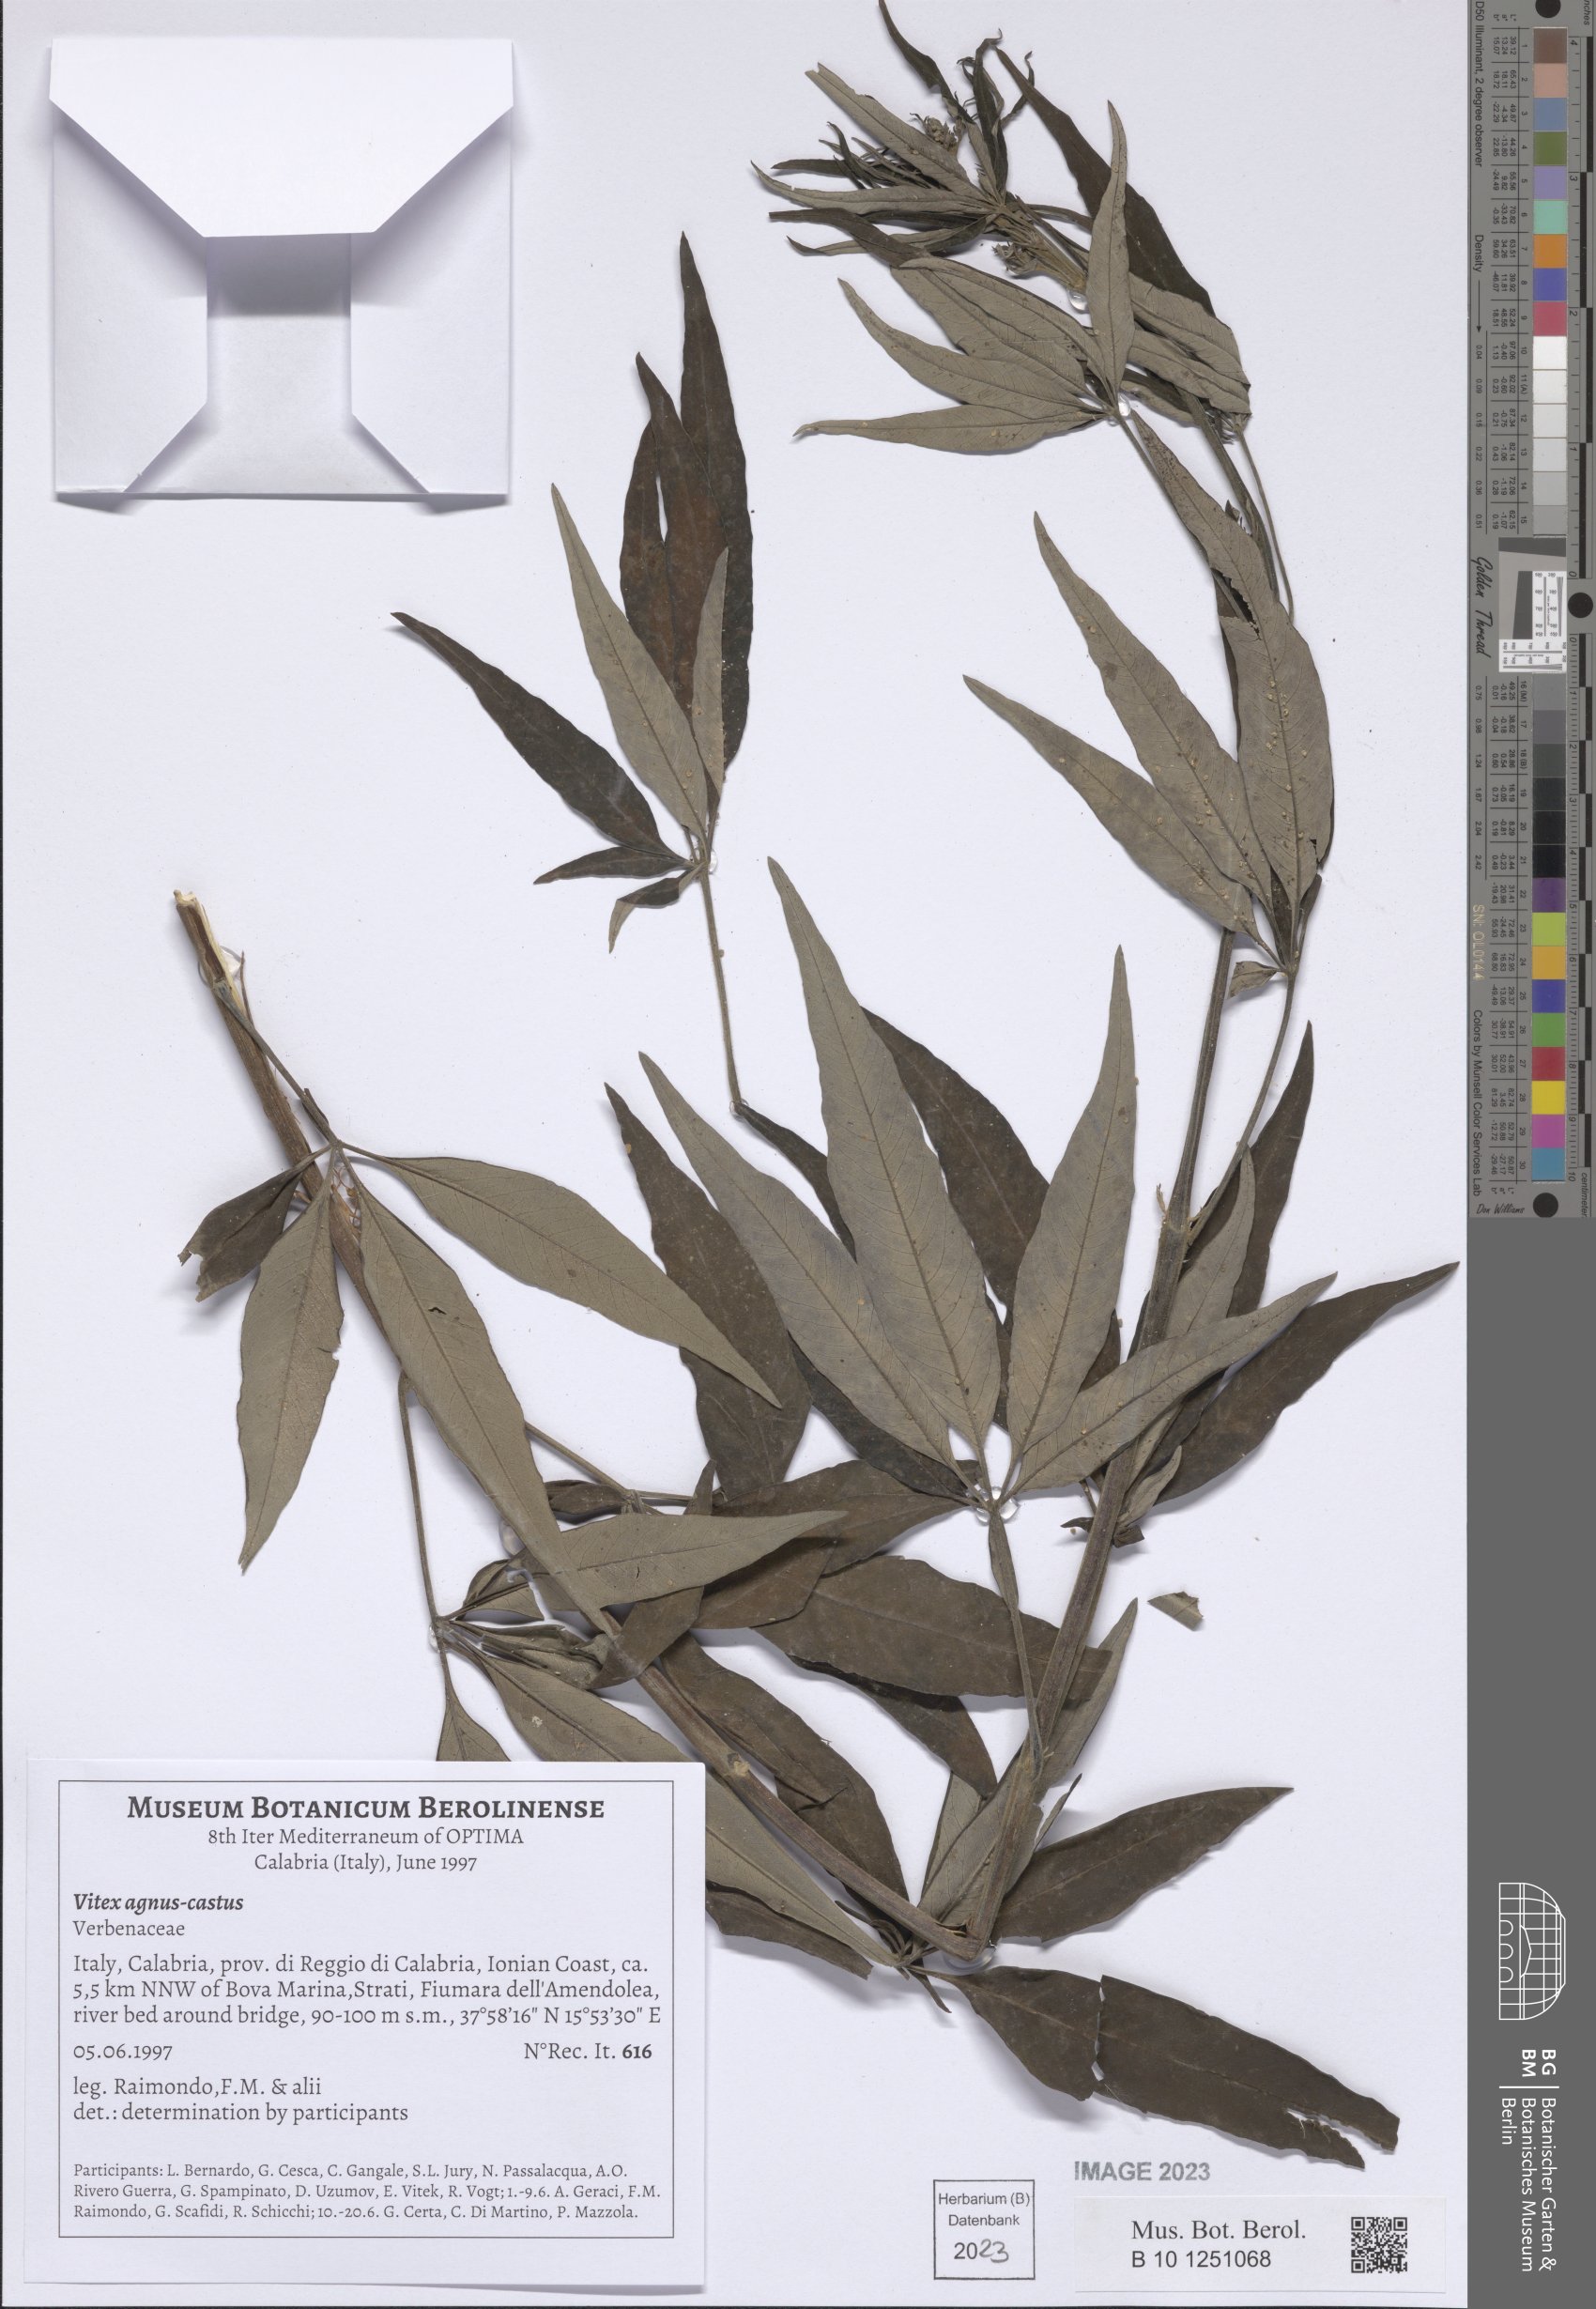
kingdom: Plantae
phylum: Tracheophyta
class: Magnoliopsida
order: Lamiales
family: Lamiaceae
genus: Vitex
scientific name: Vitex agnus-castus
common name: Chasteberry
